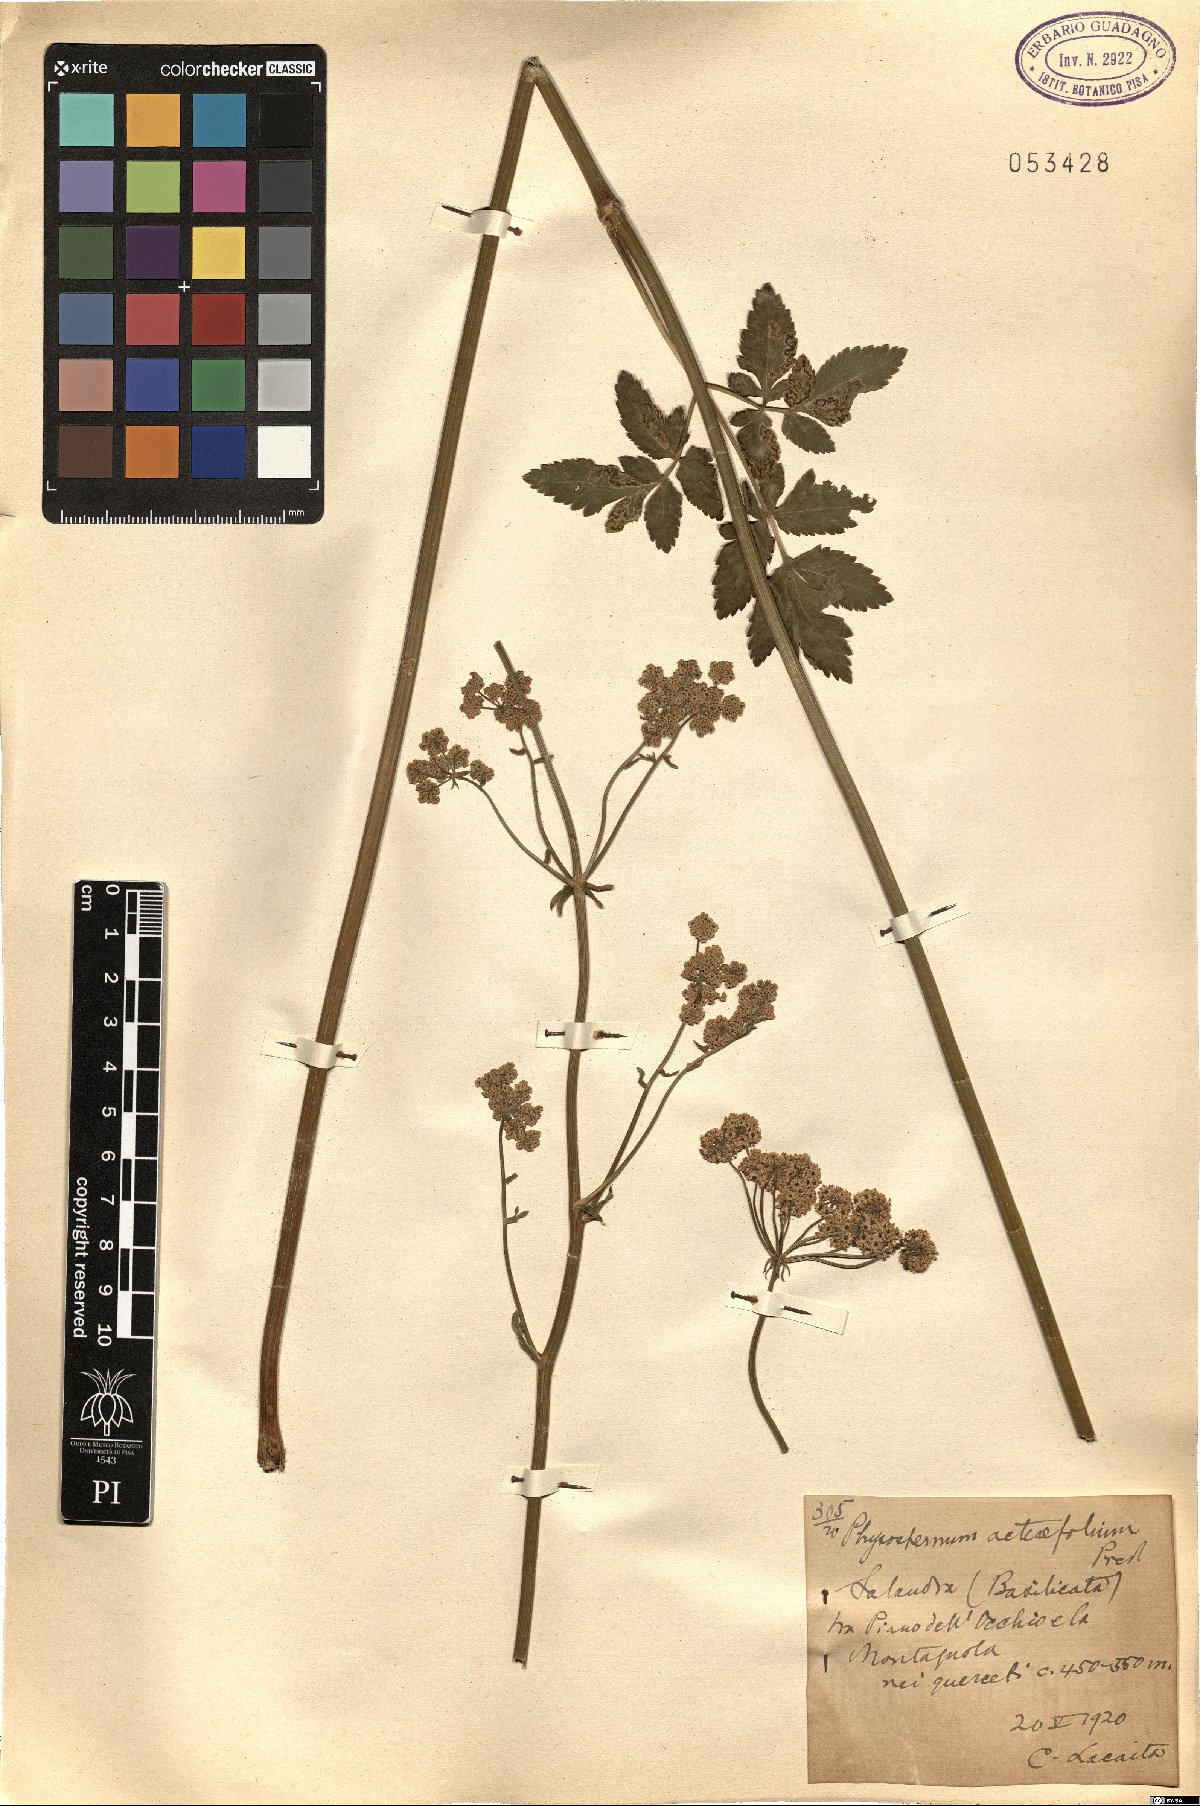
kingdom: Plantae
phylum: Tracheophyta
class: Magnoliopsida
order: Apiales
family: Apiaceae
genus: Eleutherospermum
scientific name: Eleutherospermum cicutarium
